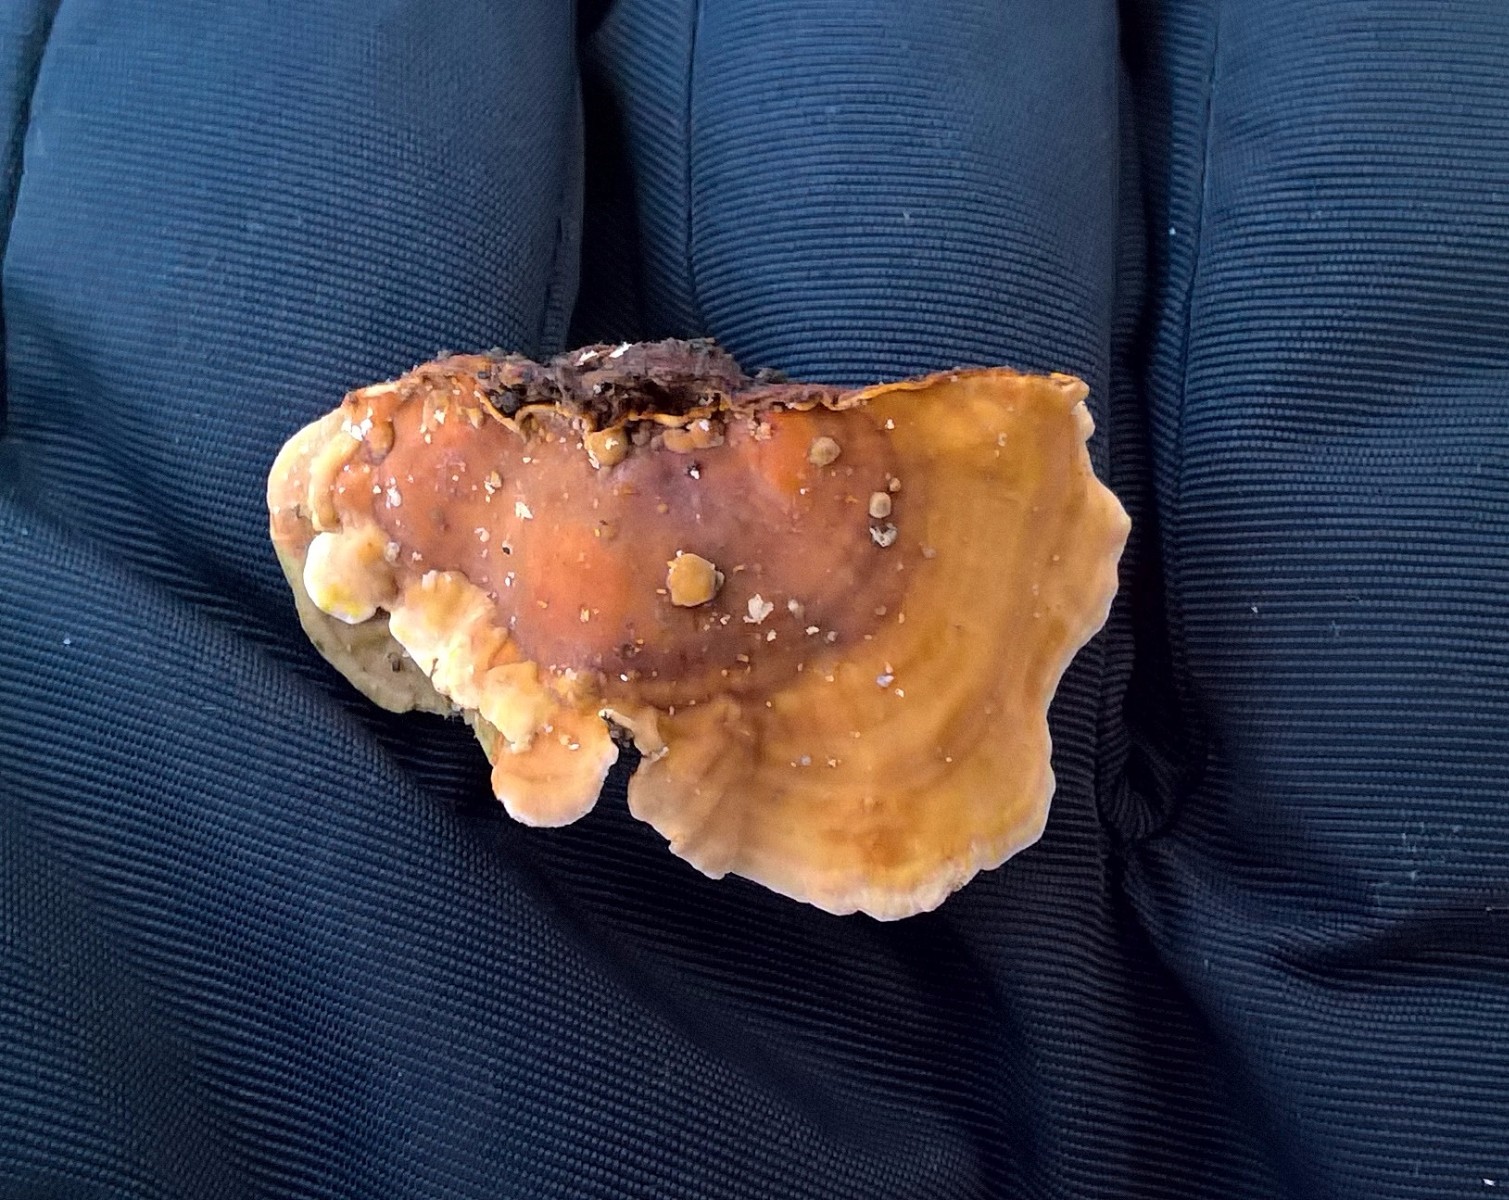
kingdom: Fungi
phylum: Basidiomycota
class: Agaricomycetes
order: Russulales
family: Stereaceae
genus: Stereum
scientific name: Stereum subtomentosum
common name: smuk lædersvamp
